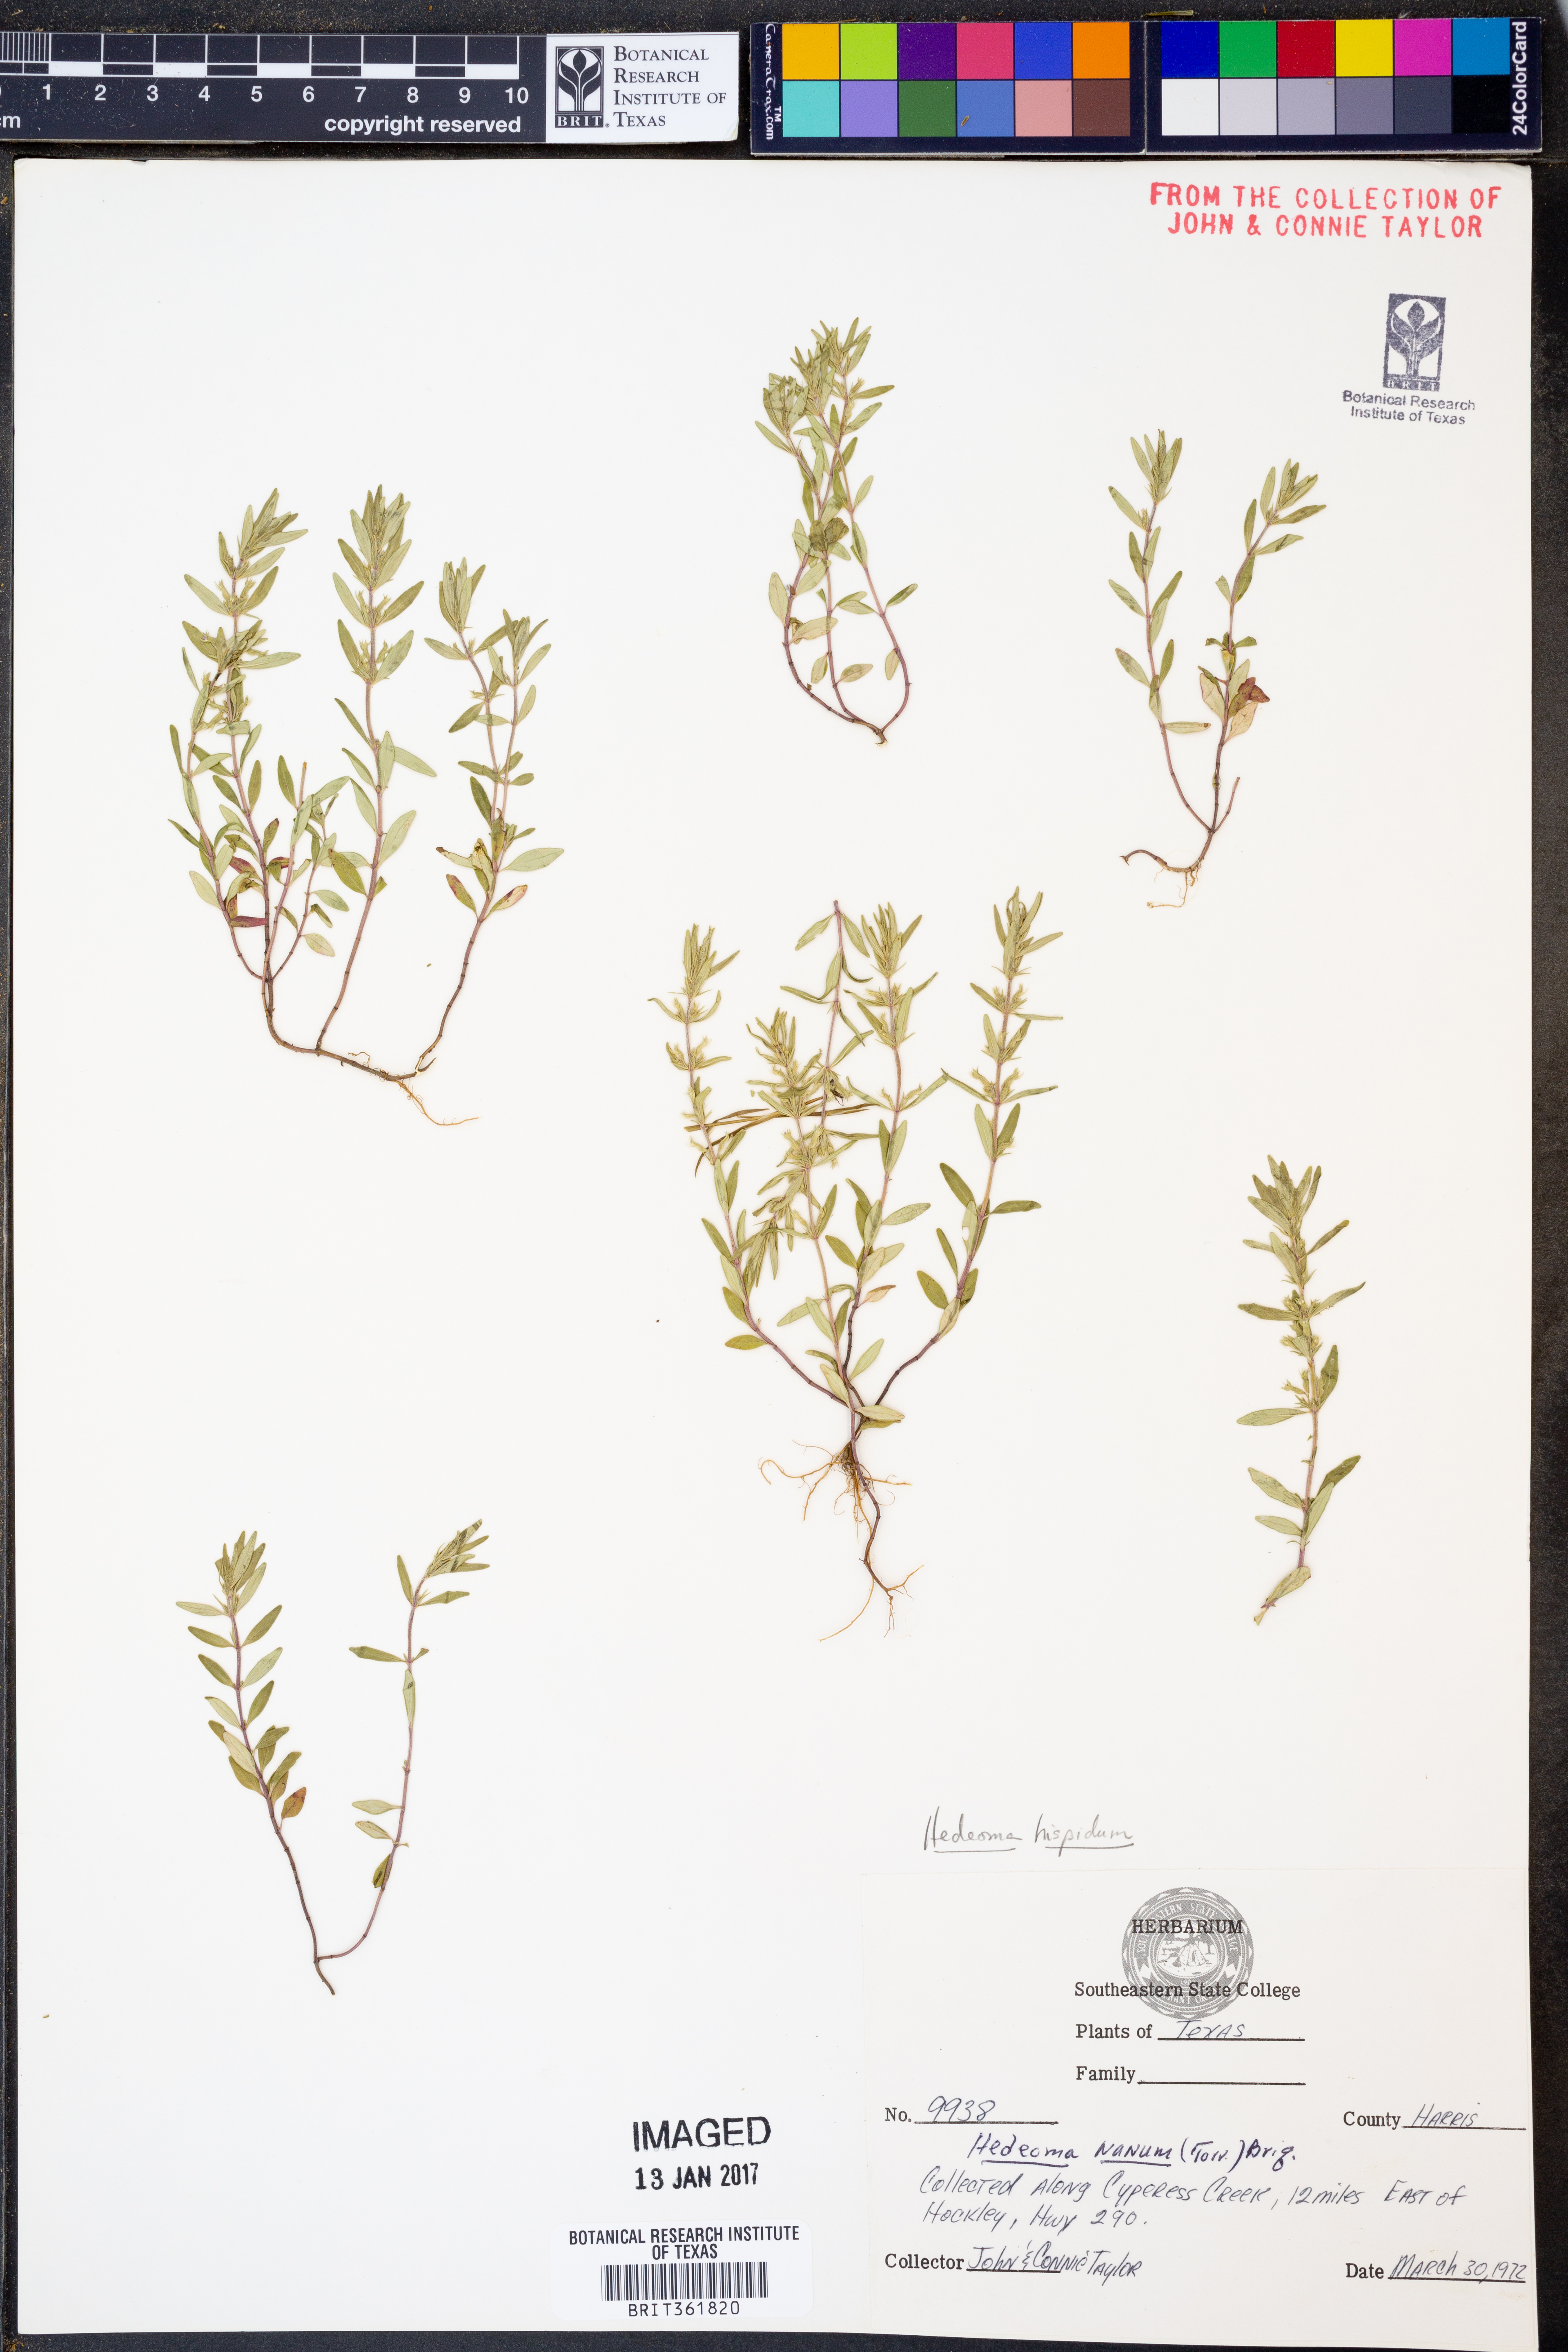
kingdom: Plantae
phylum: Tracheophyta
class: Magnoliopsida
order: Lamiales
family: Lamiaceae
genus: Hedeoma
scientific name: Hedeoma hispida
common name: Mock pennyroyal
